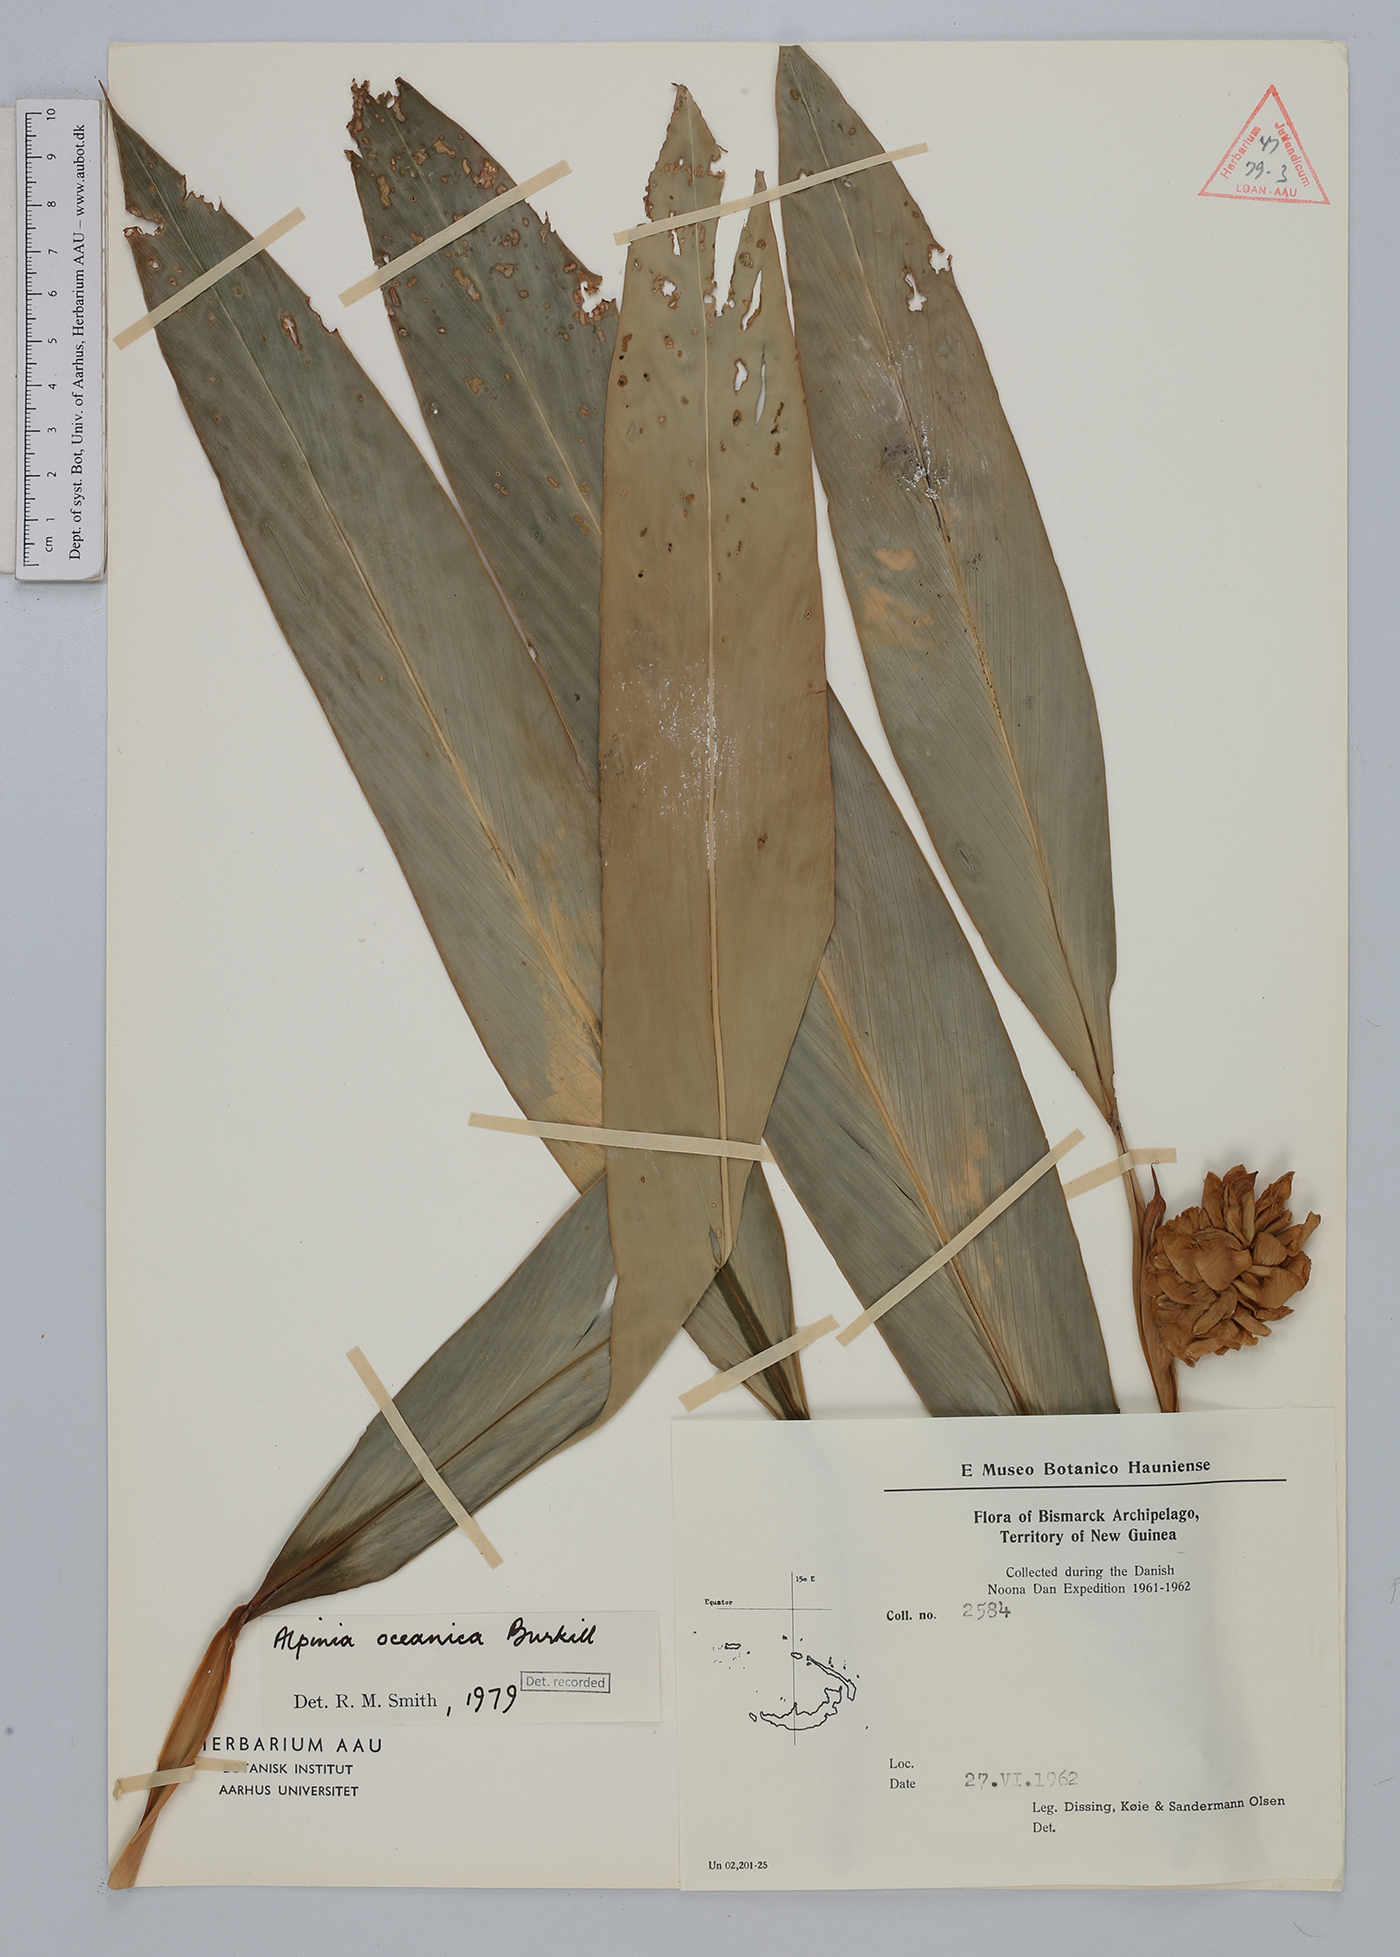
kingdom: Plantae
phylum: Tracheophyta
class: Liliopsida
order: Zingiberales
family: Zingiberaceae
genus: Alpinia
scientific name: Alpinia oceanica
